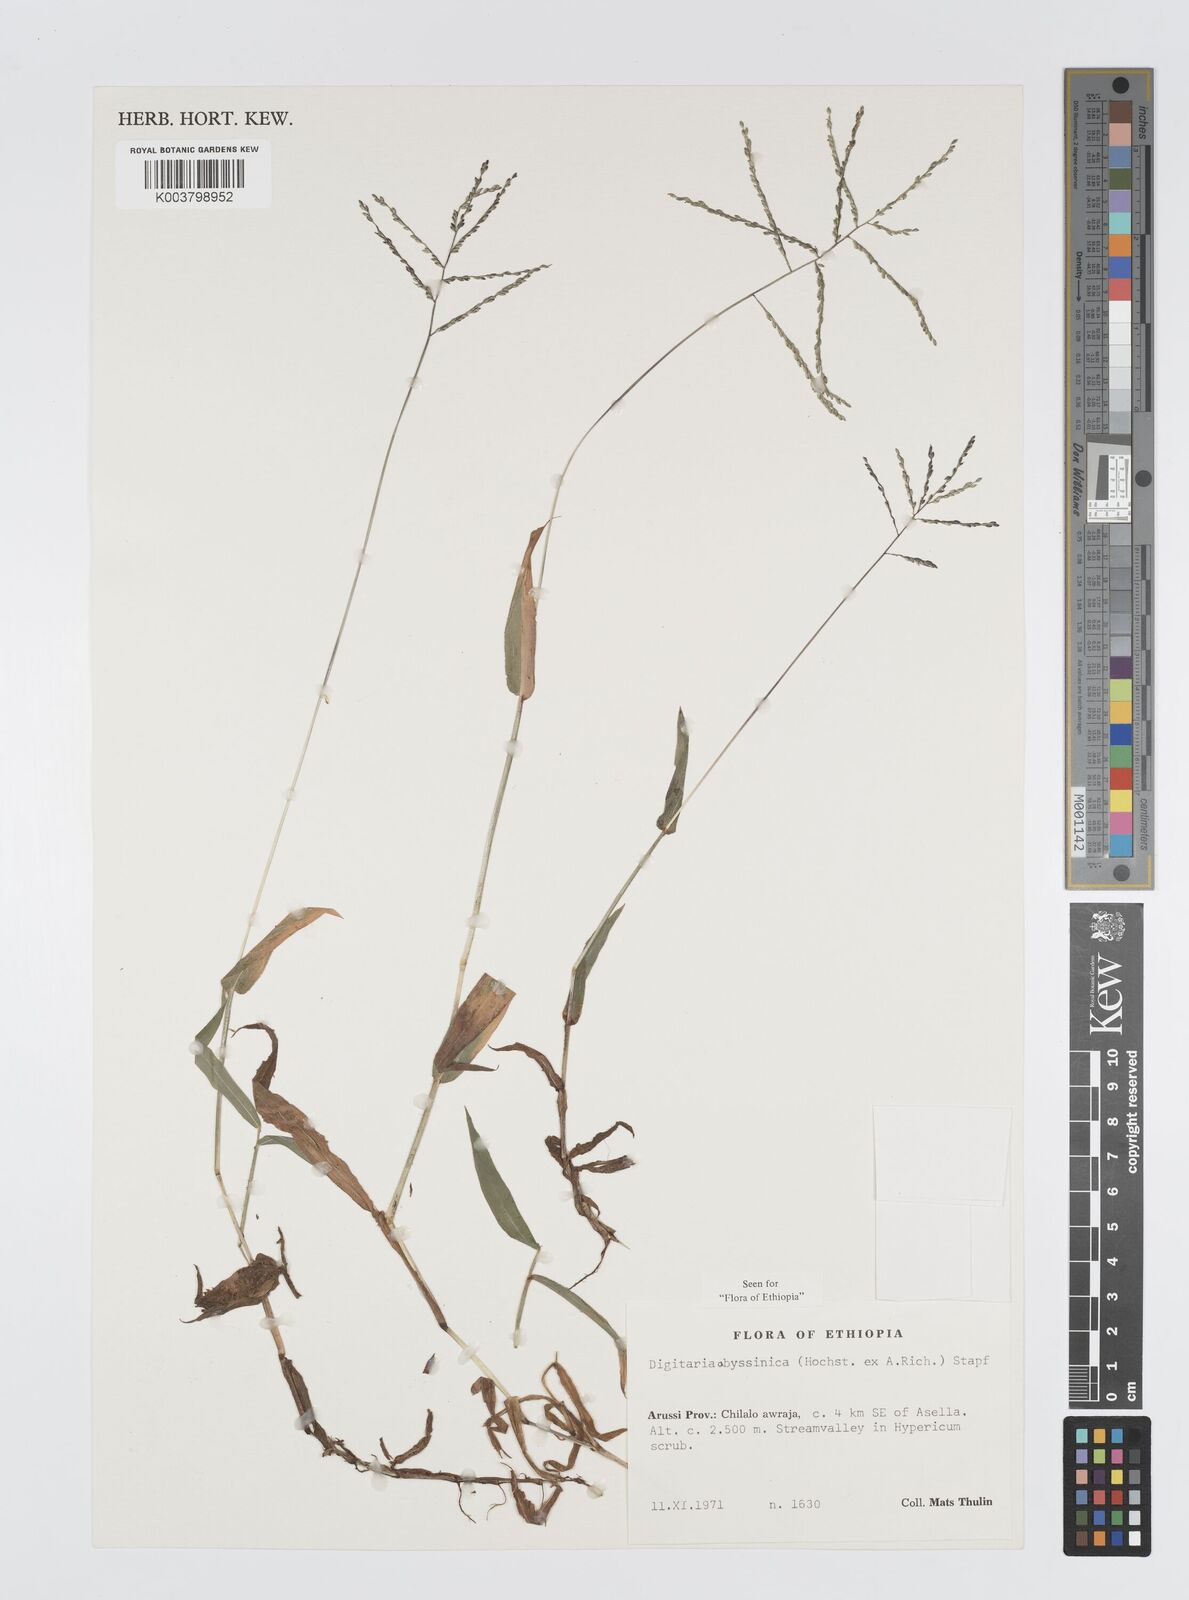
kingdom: Plantae
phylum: Tracheophyta
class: Liliopsida
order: Poales
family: Poaceae
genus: Digitaria
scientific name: Digitaria abyssinica
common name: African couchgrass
